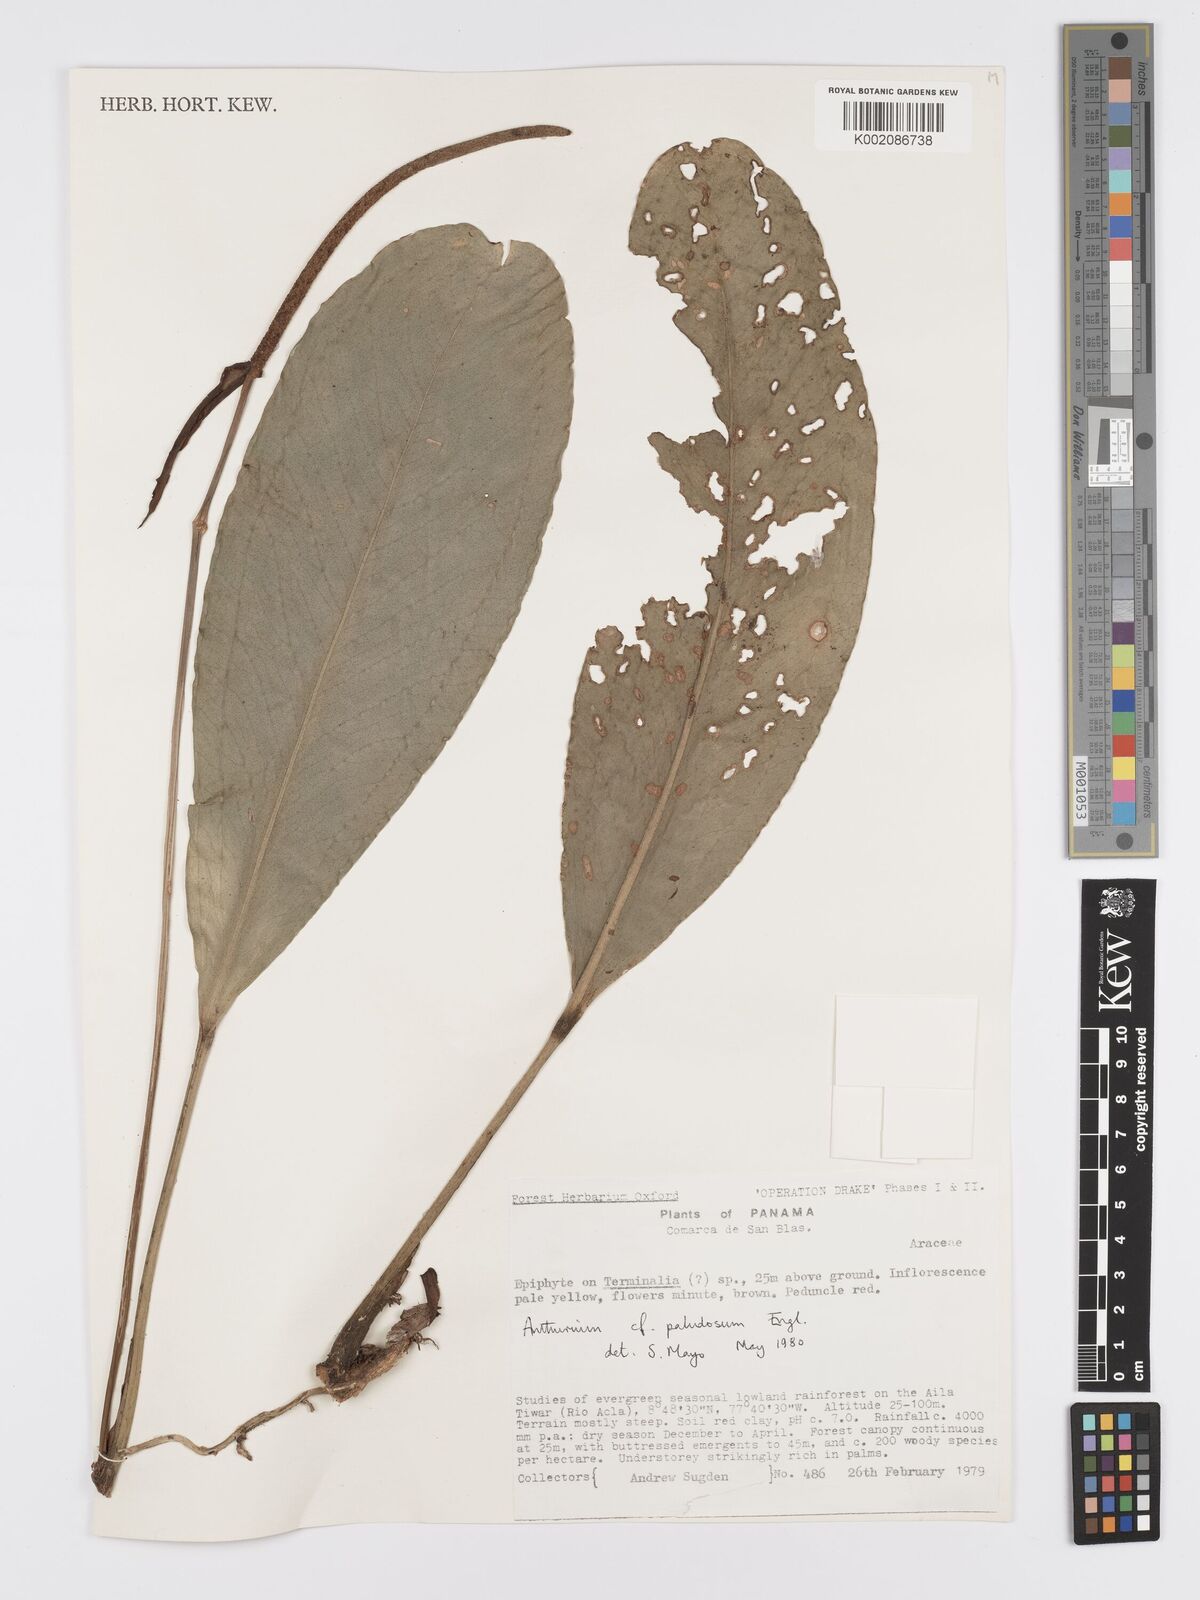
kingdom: Plantae
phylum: Tracheophyta
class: Liliopsida
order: Alismatales
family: Araceae
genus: Anthurium
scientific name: Anthurium paludosum
